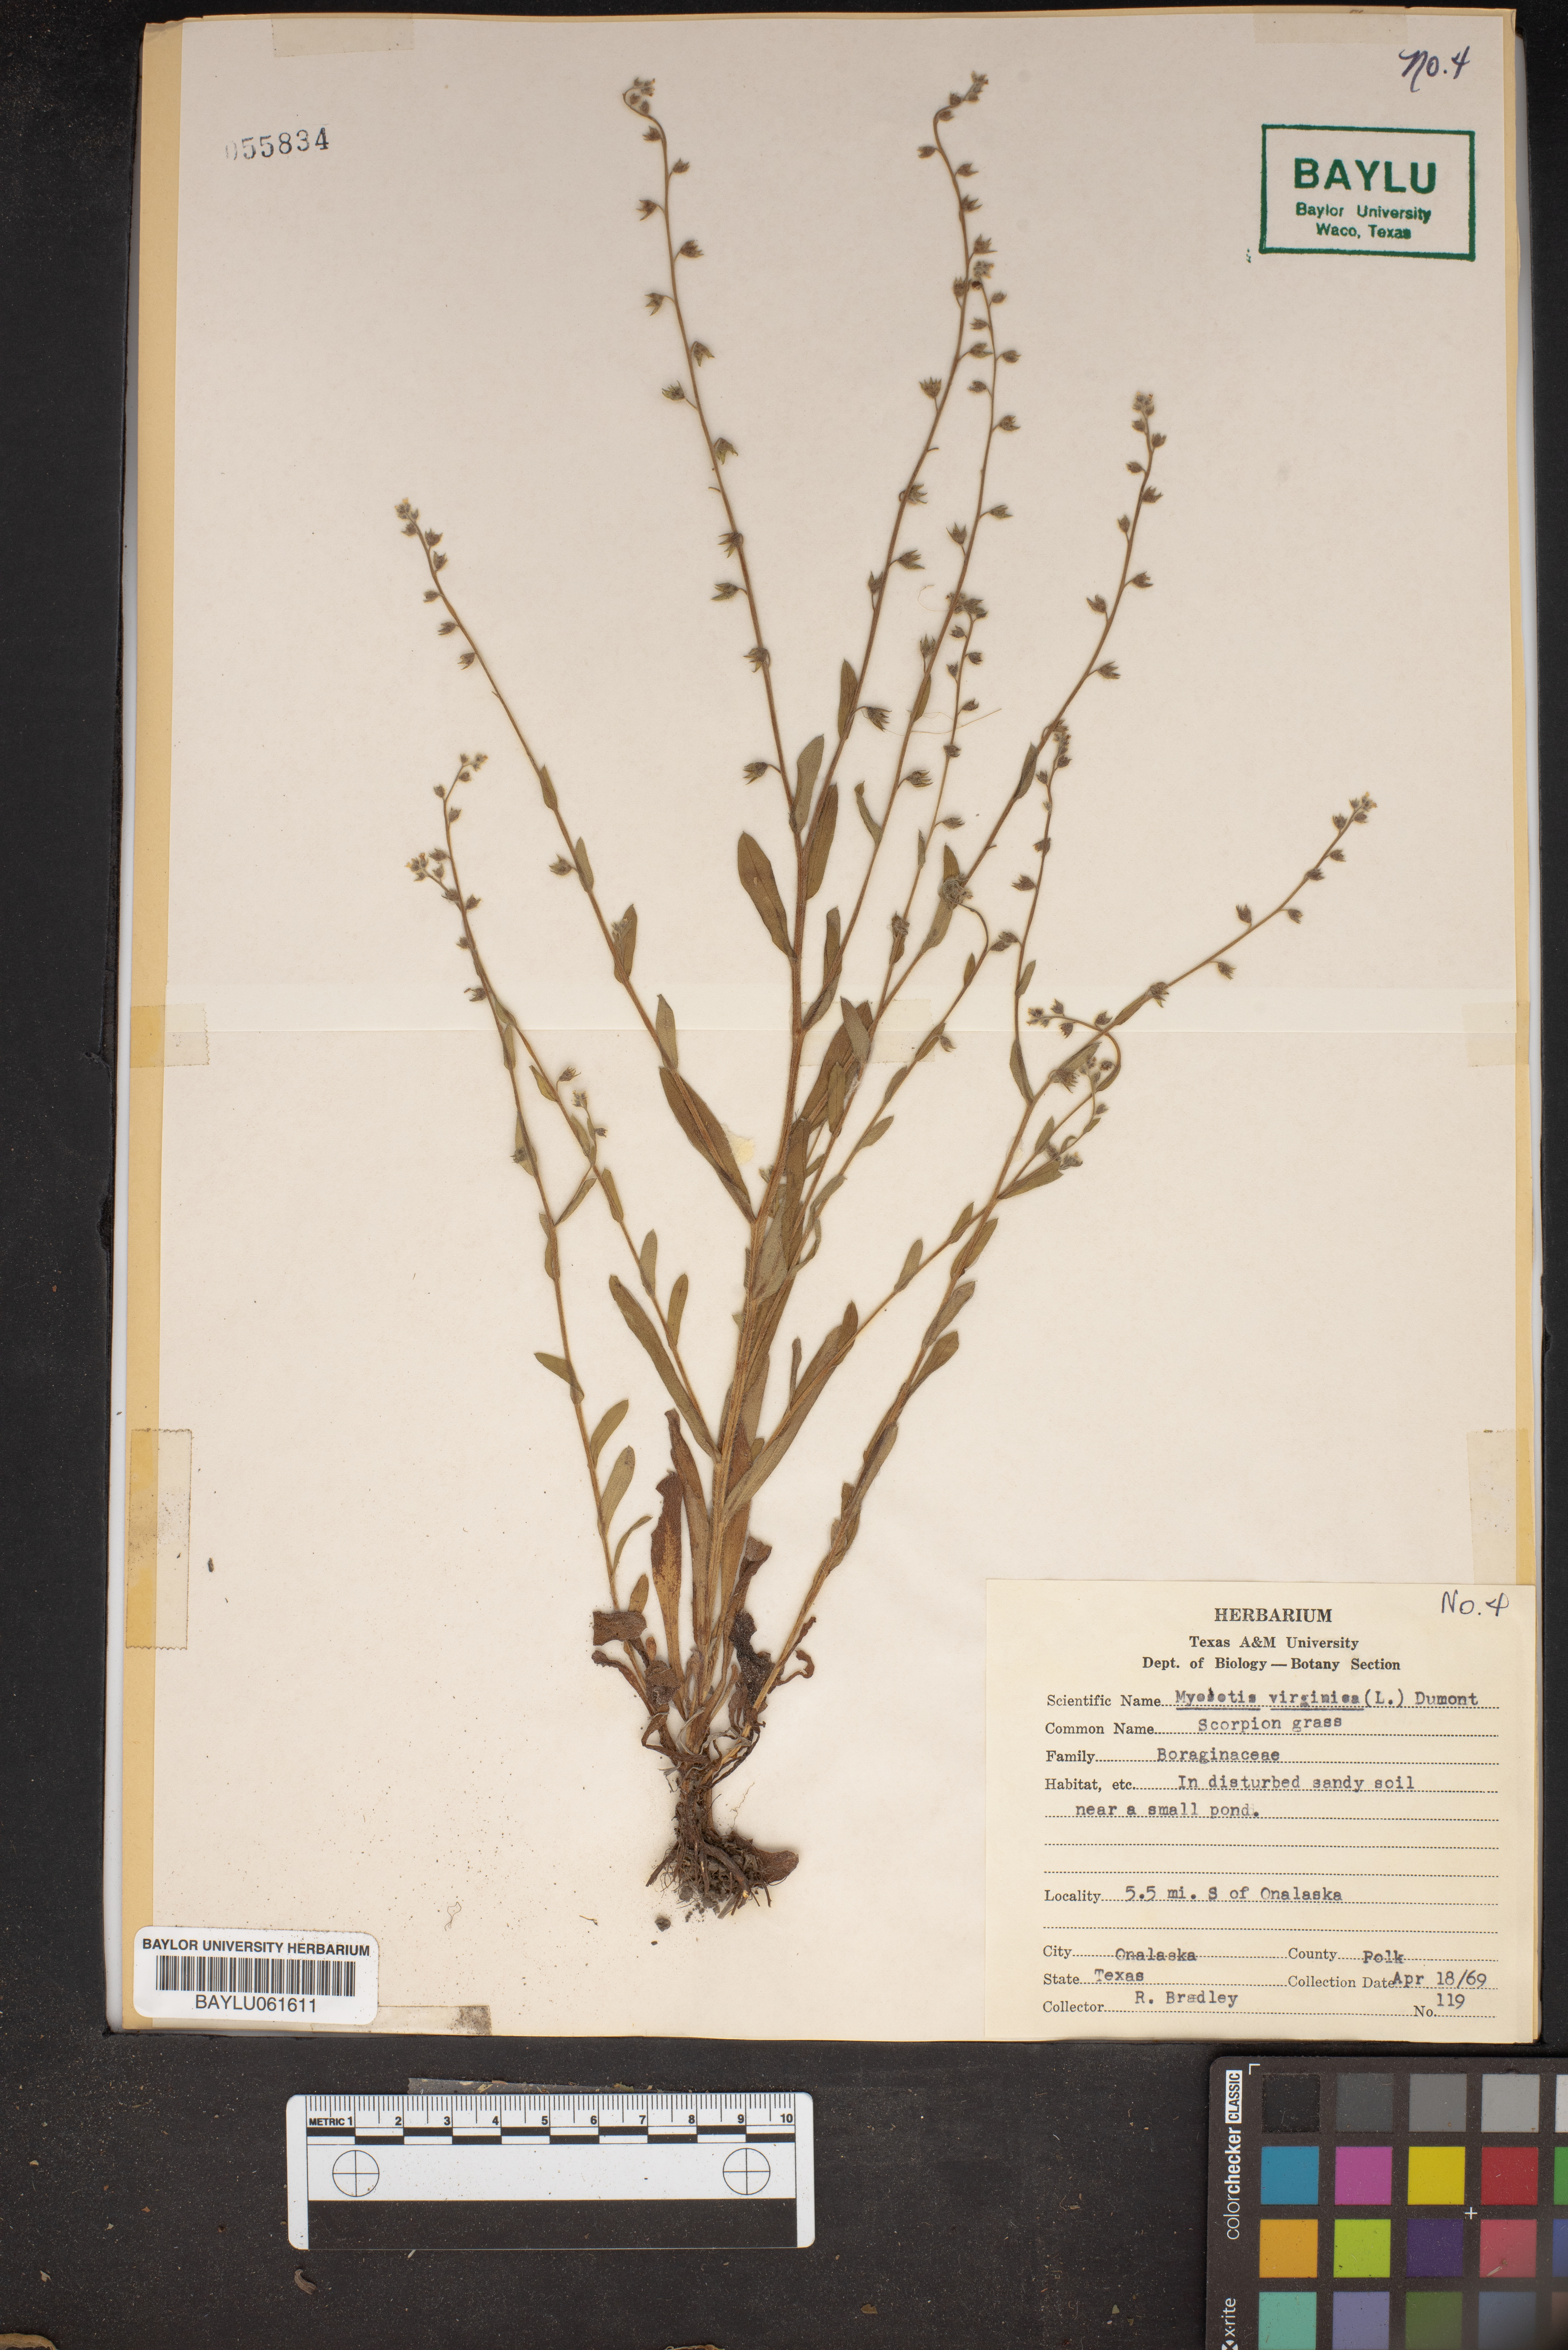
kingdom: Plantae
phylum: Tracheophyta
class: Magnoliopsida
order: Boraginales
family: Boraginaceae
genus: Hackelia
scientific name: Hackelia virginiana
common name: Beggar's-lice
